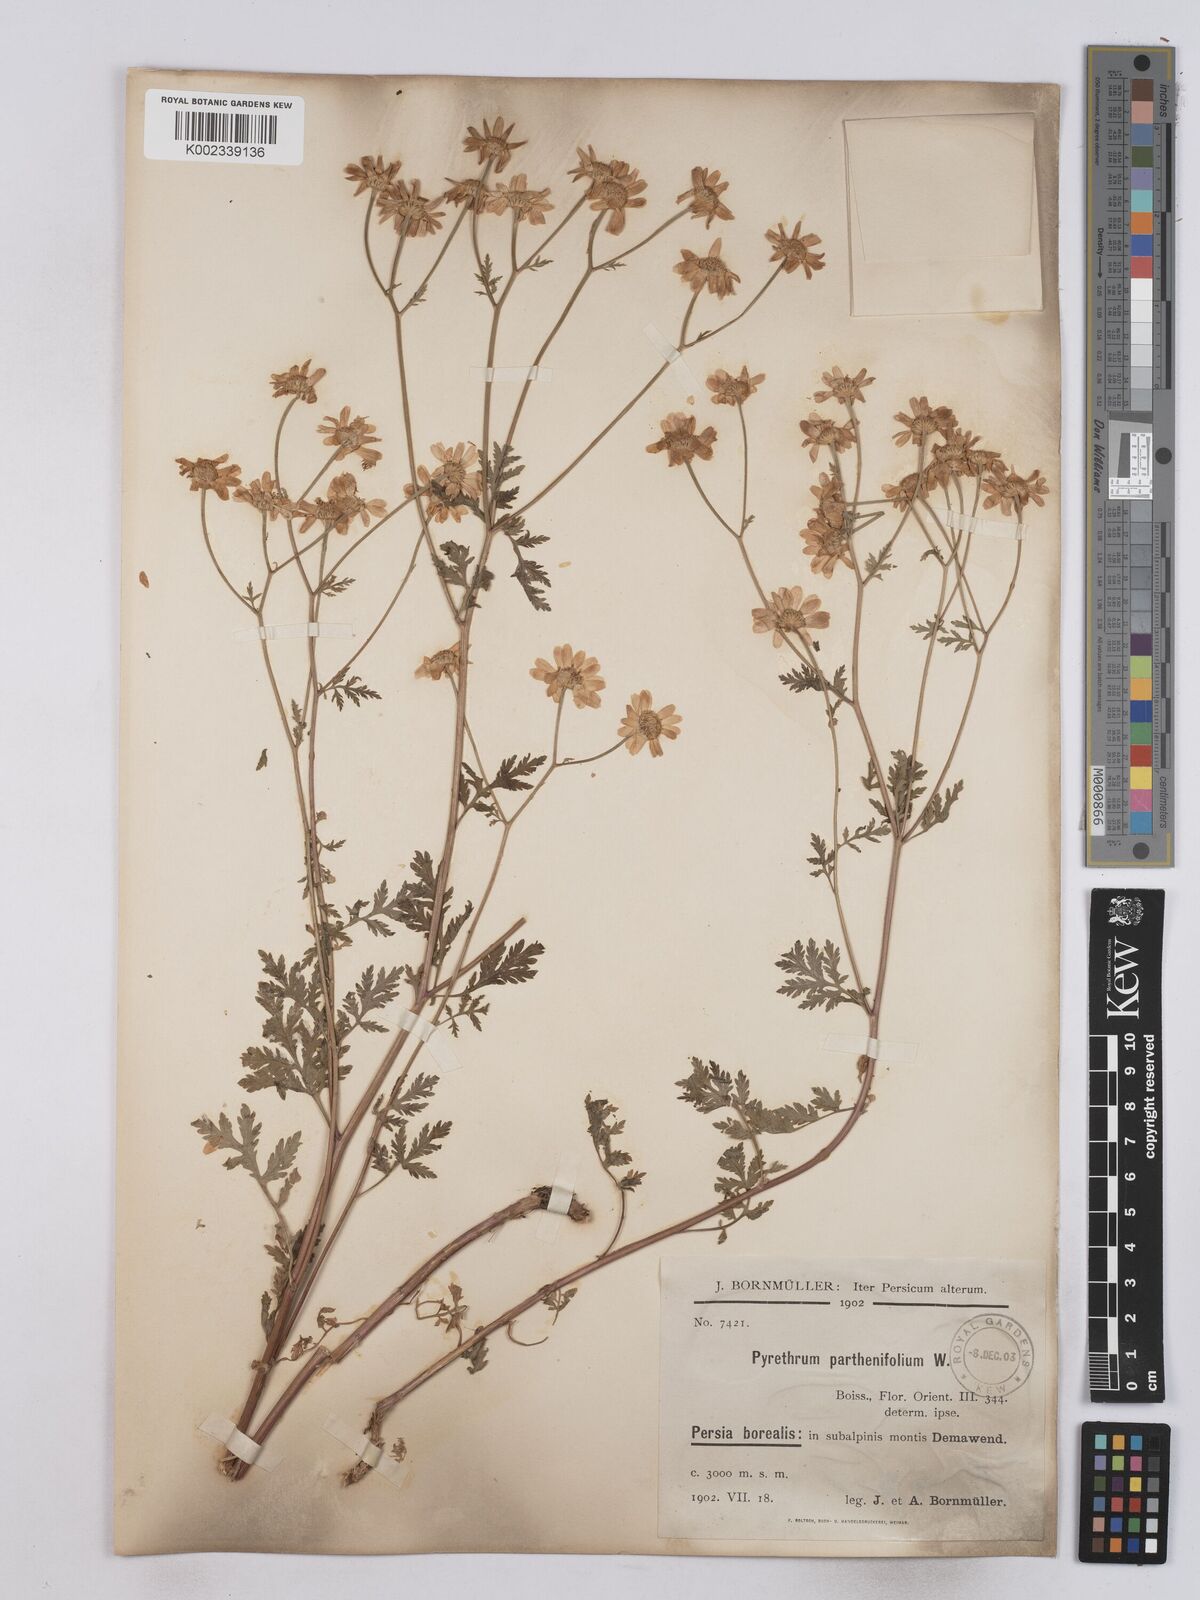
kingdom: Plantae
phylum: Tracheophyta
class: Magnoliopsida
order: Asterales
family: Asteraceae
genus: Tanacetum
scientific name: Tanacetum partheniifolium
